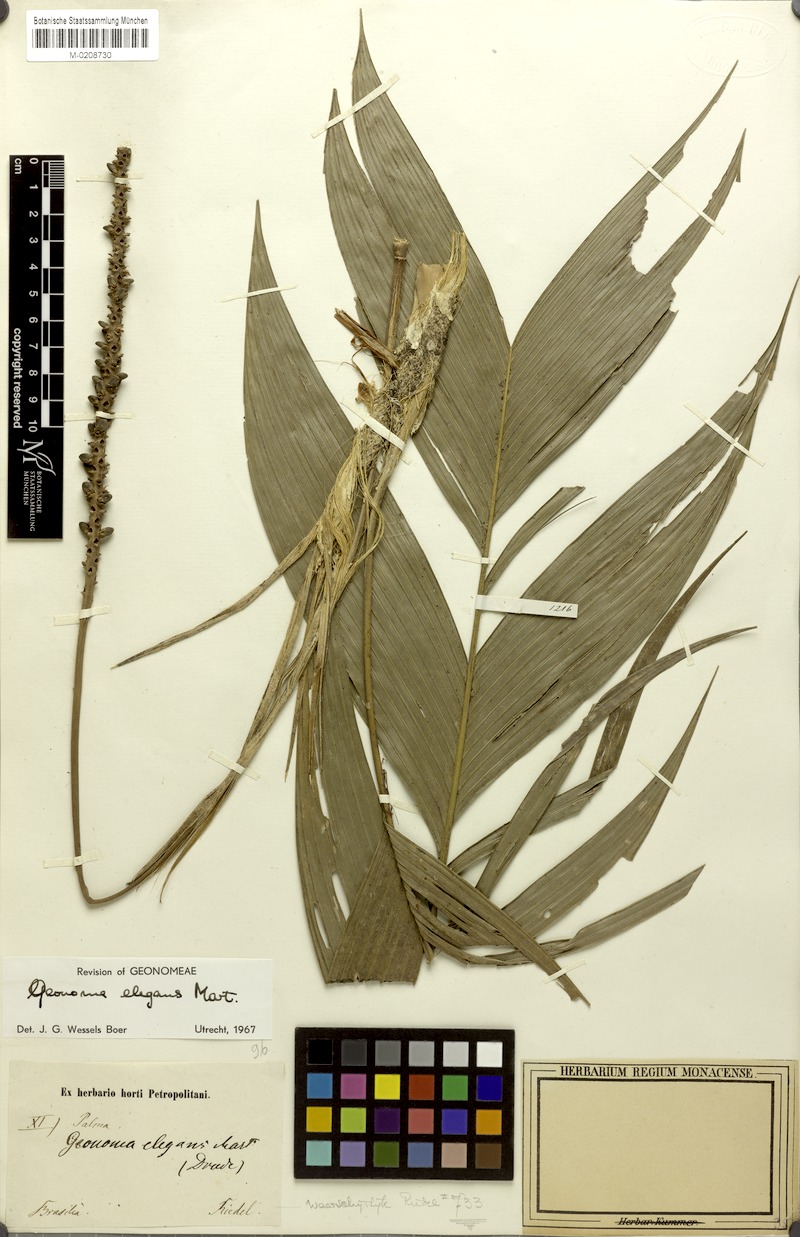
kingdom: Plantae
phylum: Tracheophyta
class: Liliopsida
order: Arecales
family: Arecaceae
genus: Geonoma
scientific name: Geonoma elegans
